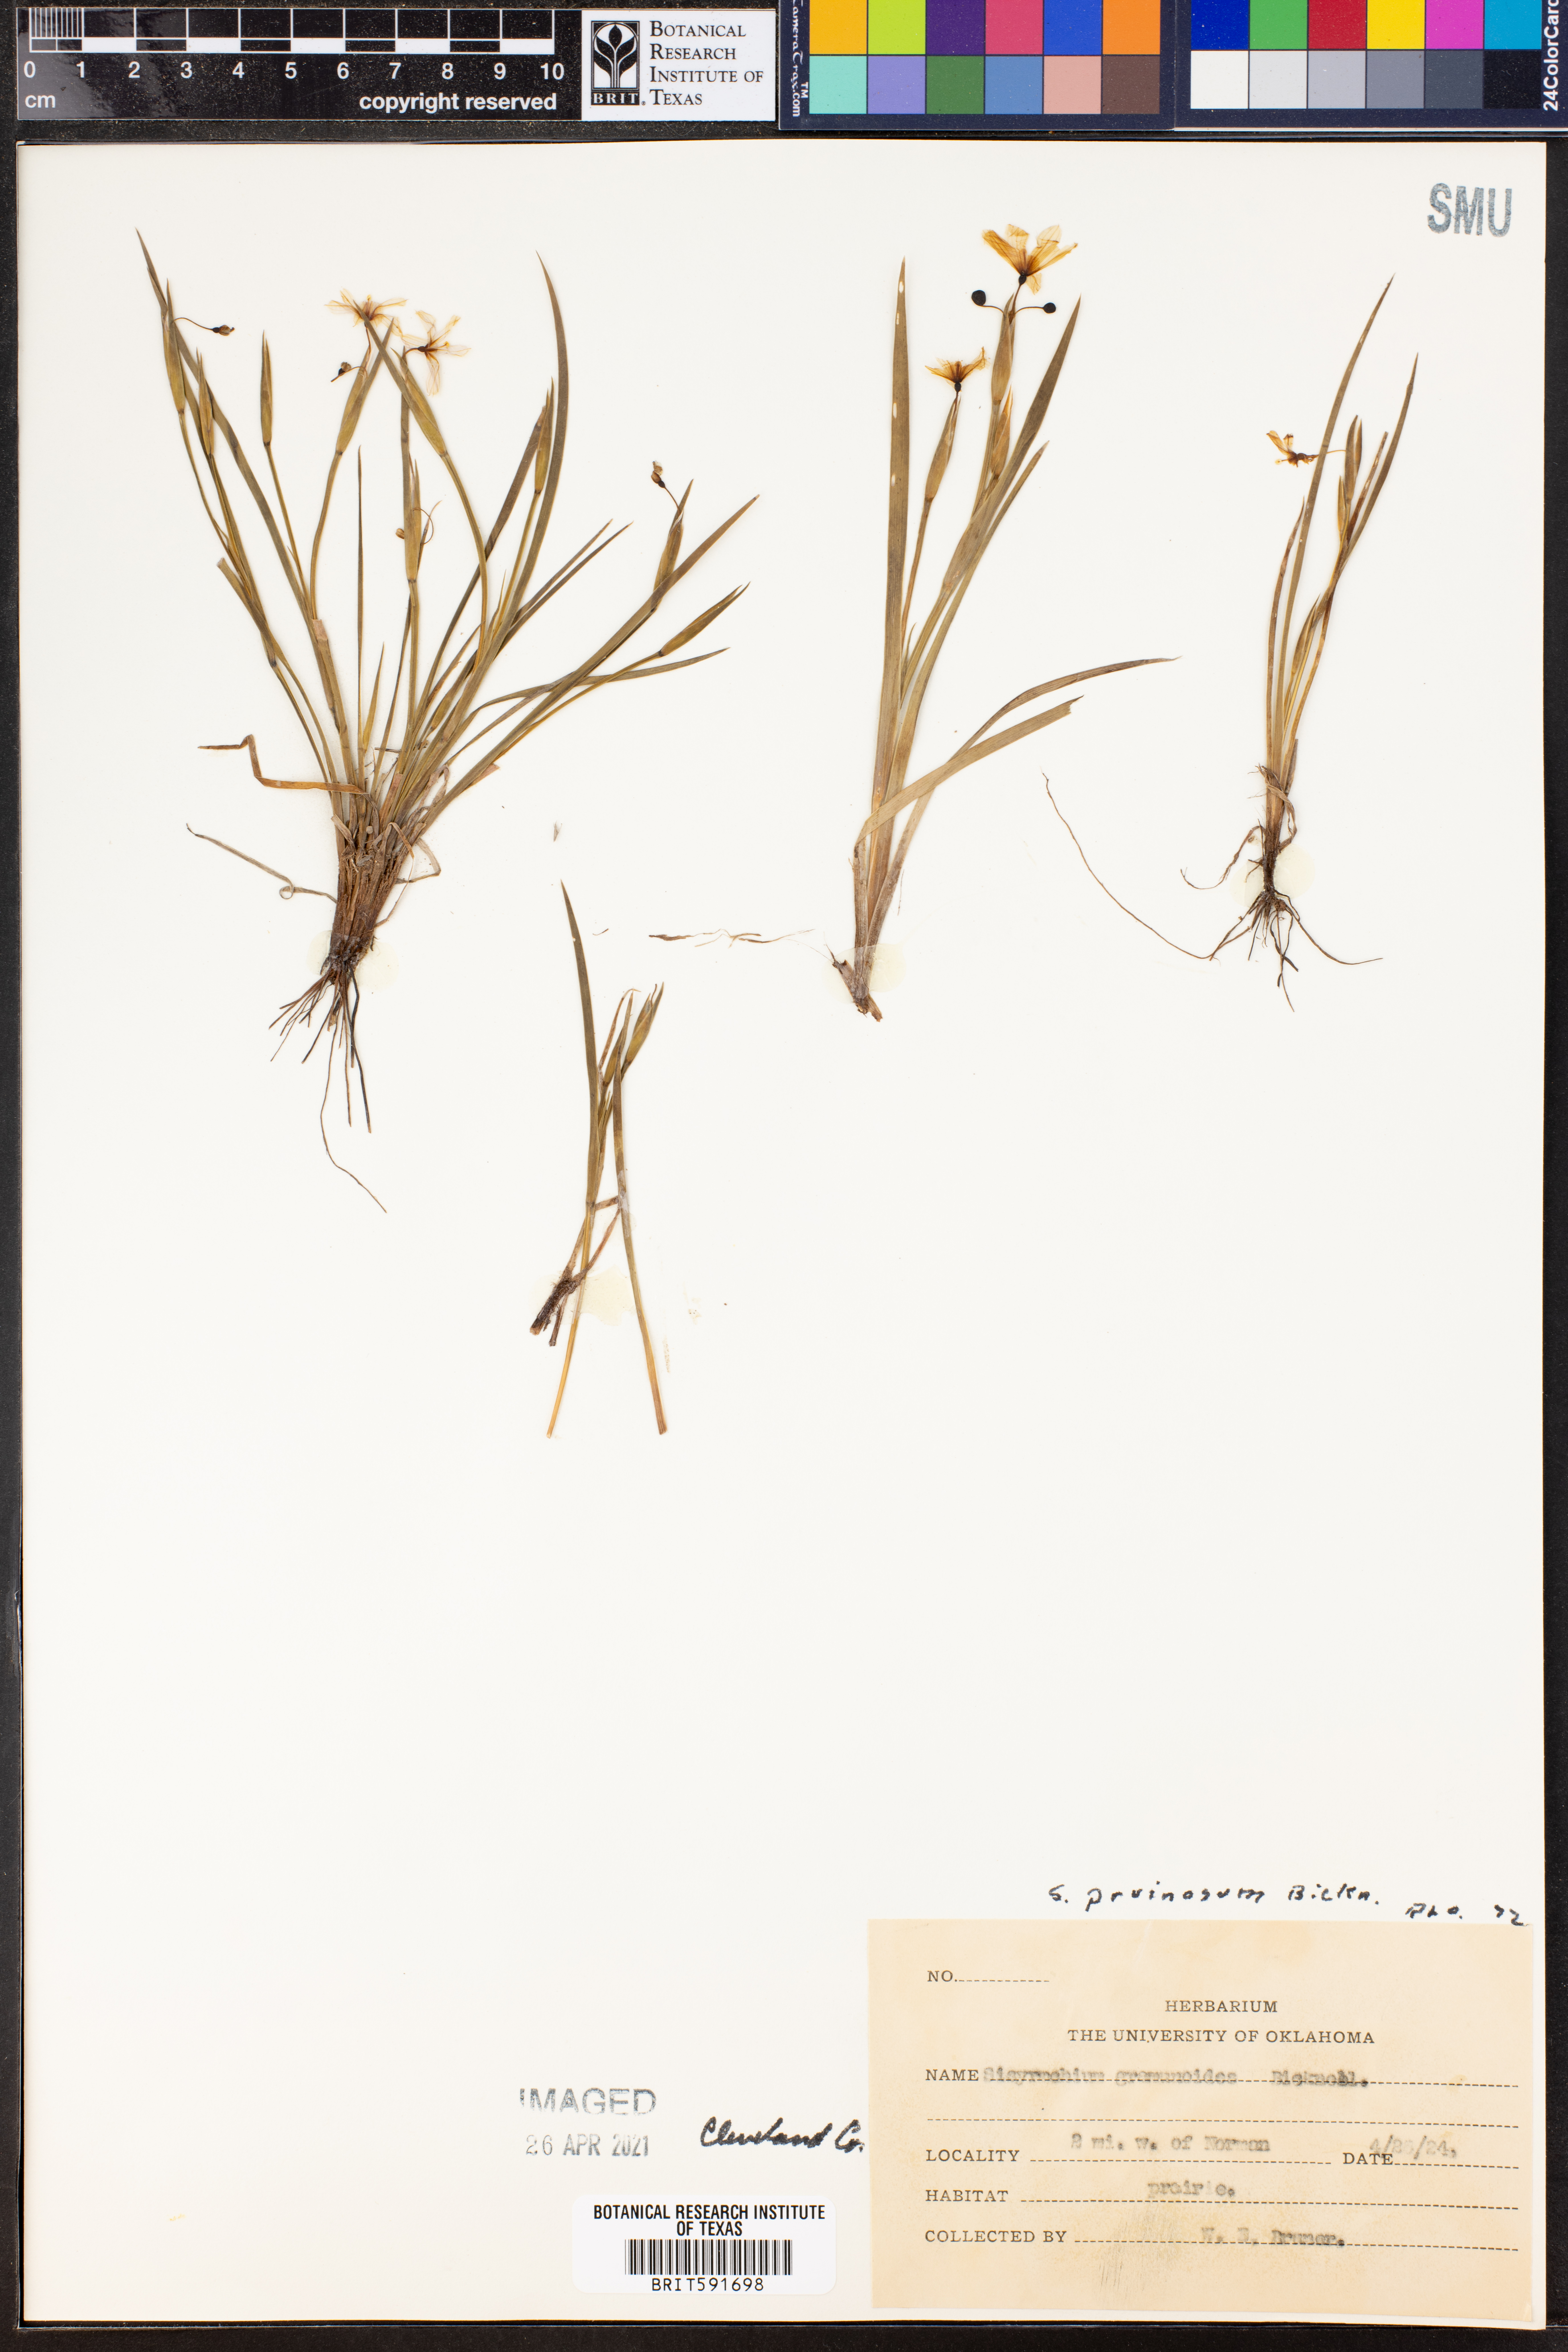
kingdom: Plantae
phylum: Tracheophyta
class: Liliopsida
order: Asparagales
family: Iridaceae
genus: Sisyrinchium
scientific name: Sisyrinchium pruinosum
